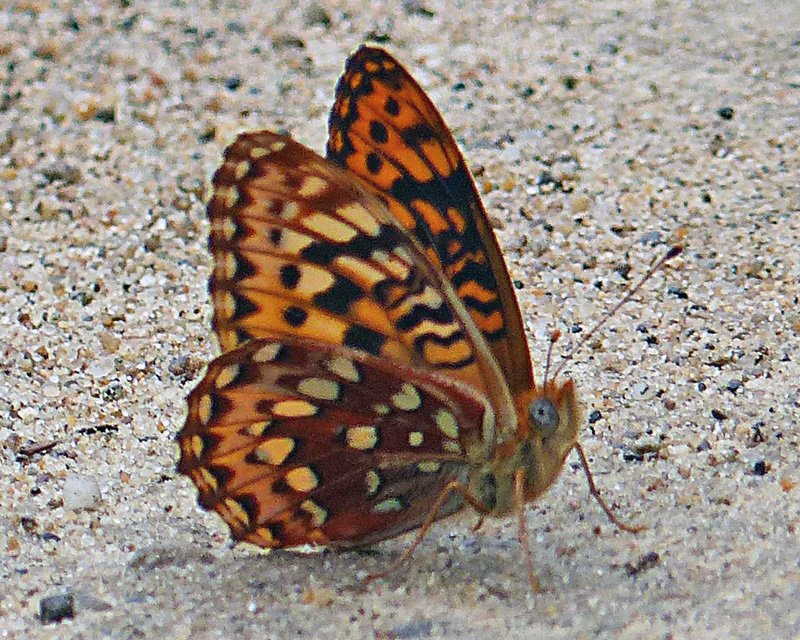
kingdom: Animalia
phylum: Arthropoda
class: Insecta
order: Lepidoptera
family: Nymphalidae
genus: Speyeria
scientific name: Speyeria hydaspe
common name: Hydaspe Fritillary
